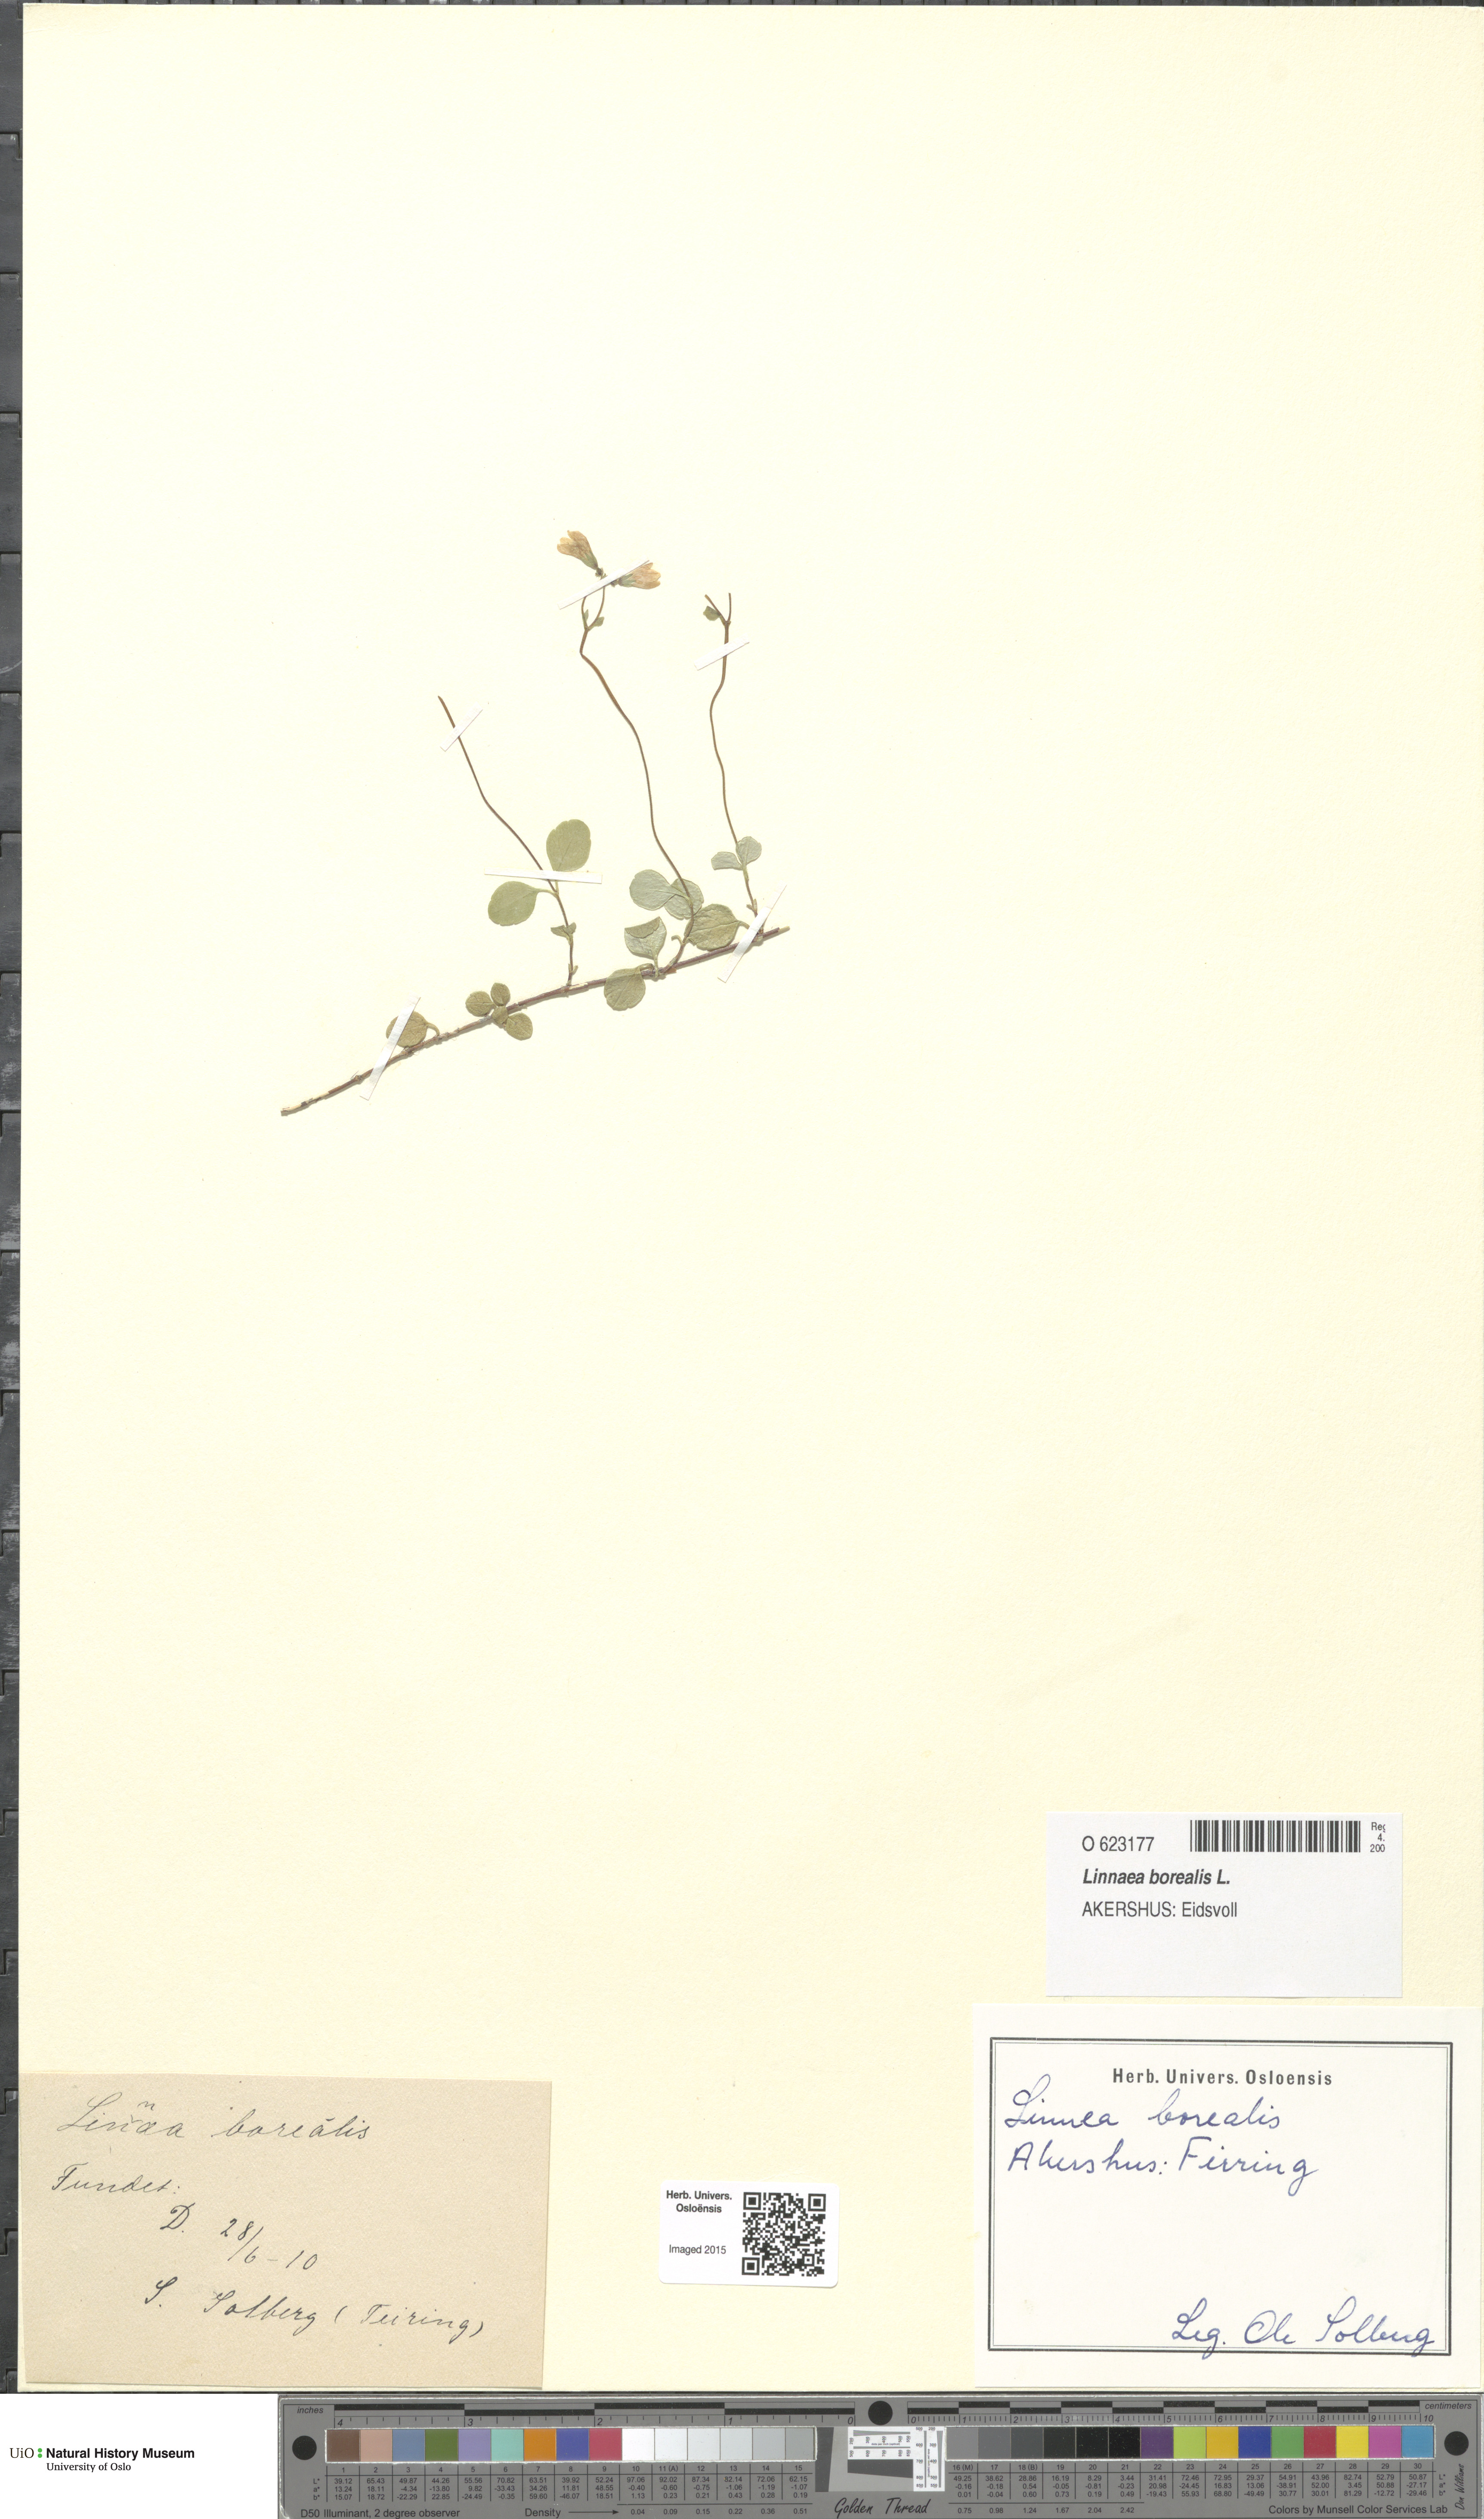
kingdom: Plantae
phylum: Tracheophyta
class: Magnoliopsida
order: Dipsacales
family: Caprifoliaceae
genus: Linnaea
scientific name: Linnaea borealis
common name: Twinflower
